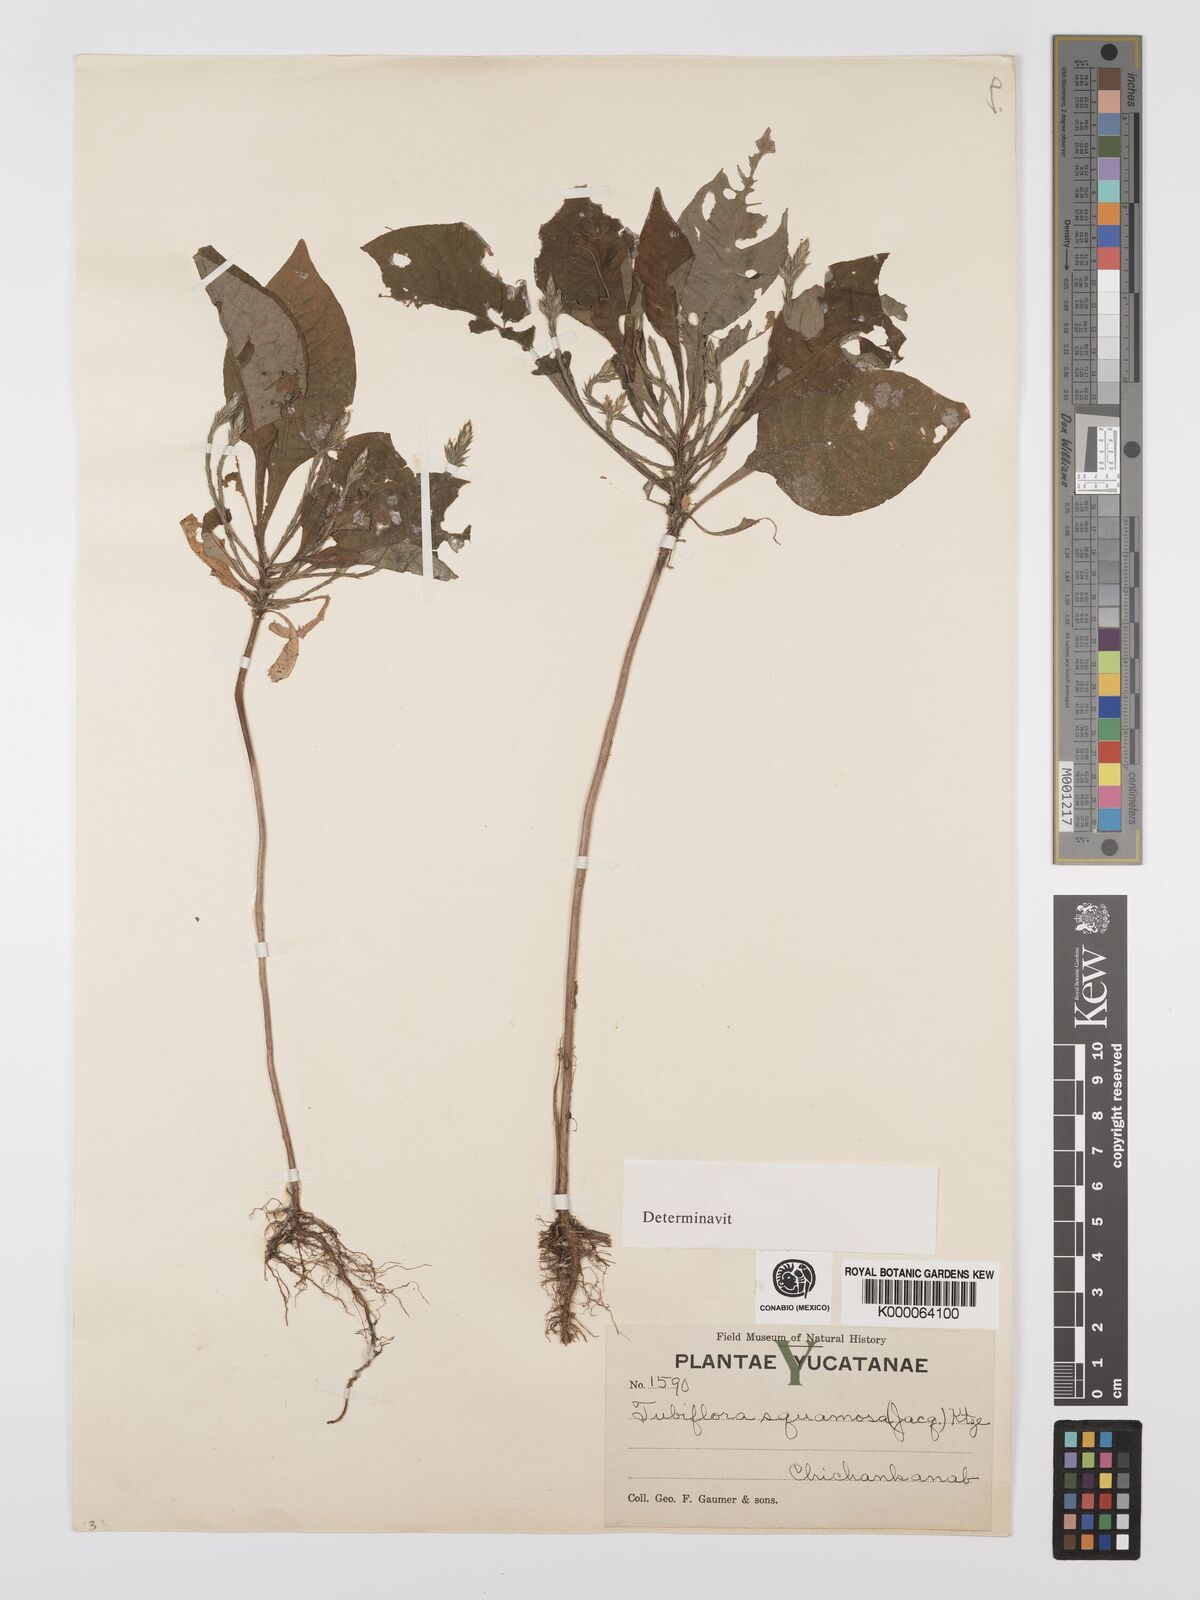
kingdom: Plantae
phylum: Tracheophyta
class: Magnoliopsida
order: Lamiales
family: Acanthaceae
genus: Elytraria
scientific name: Elytraria imbricata
